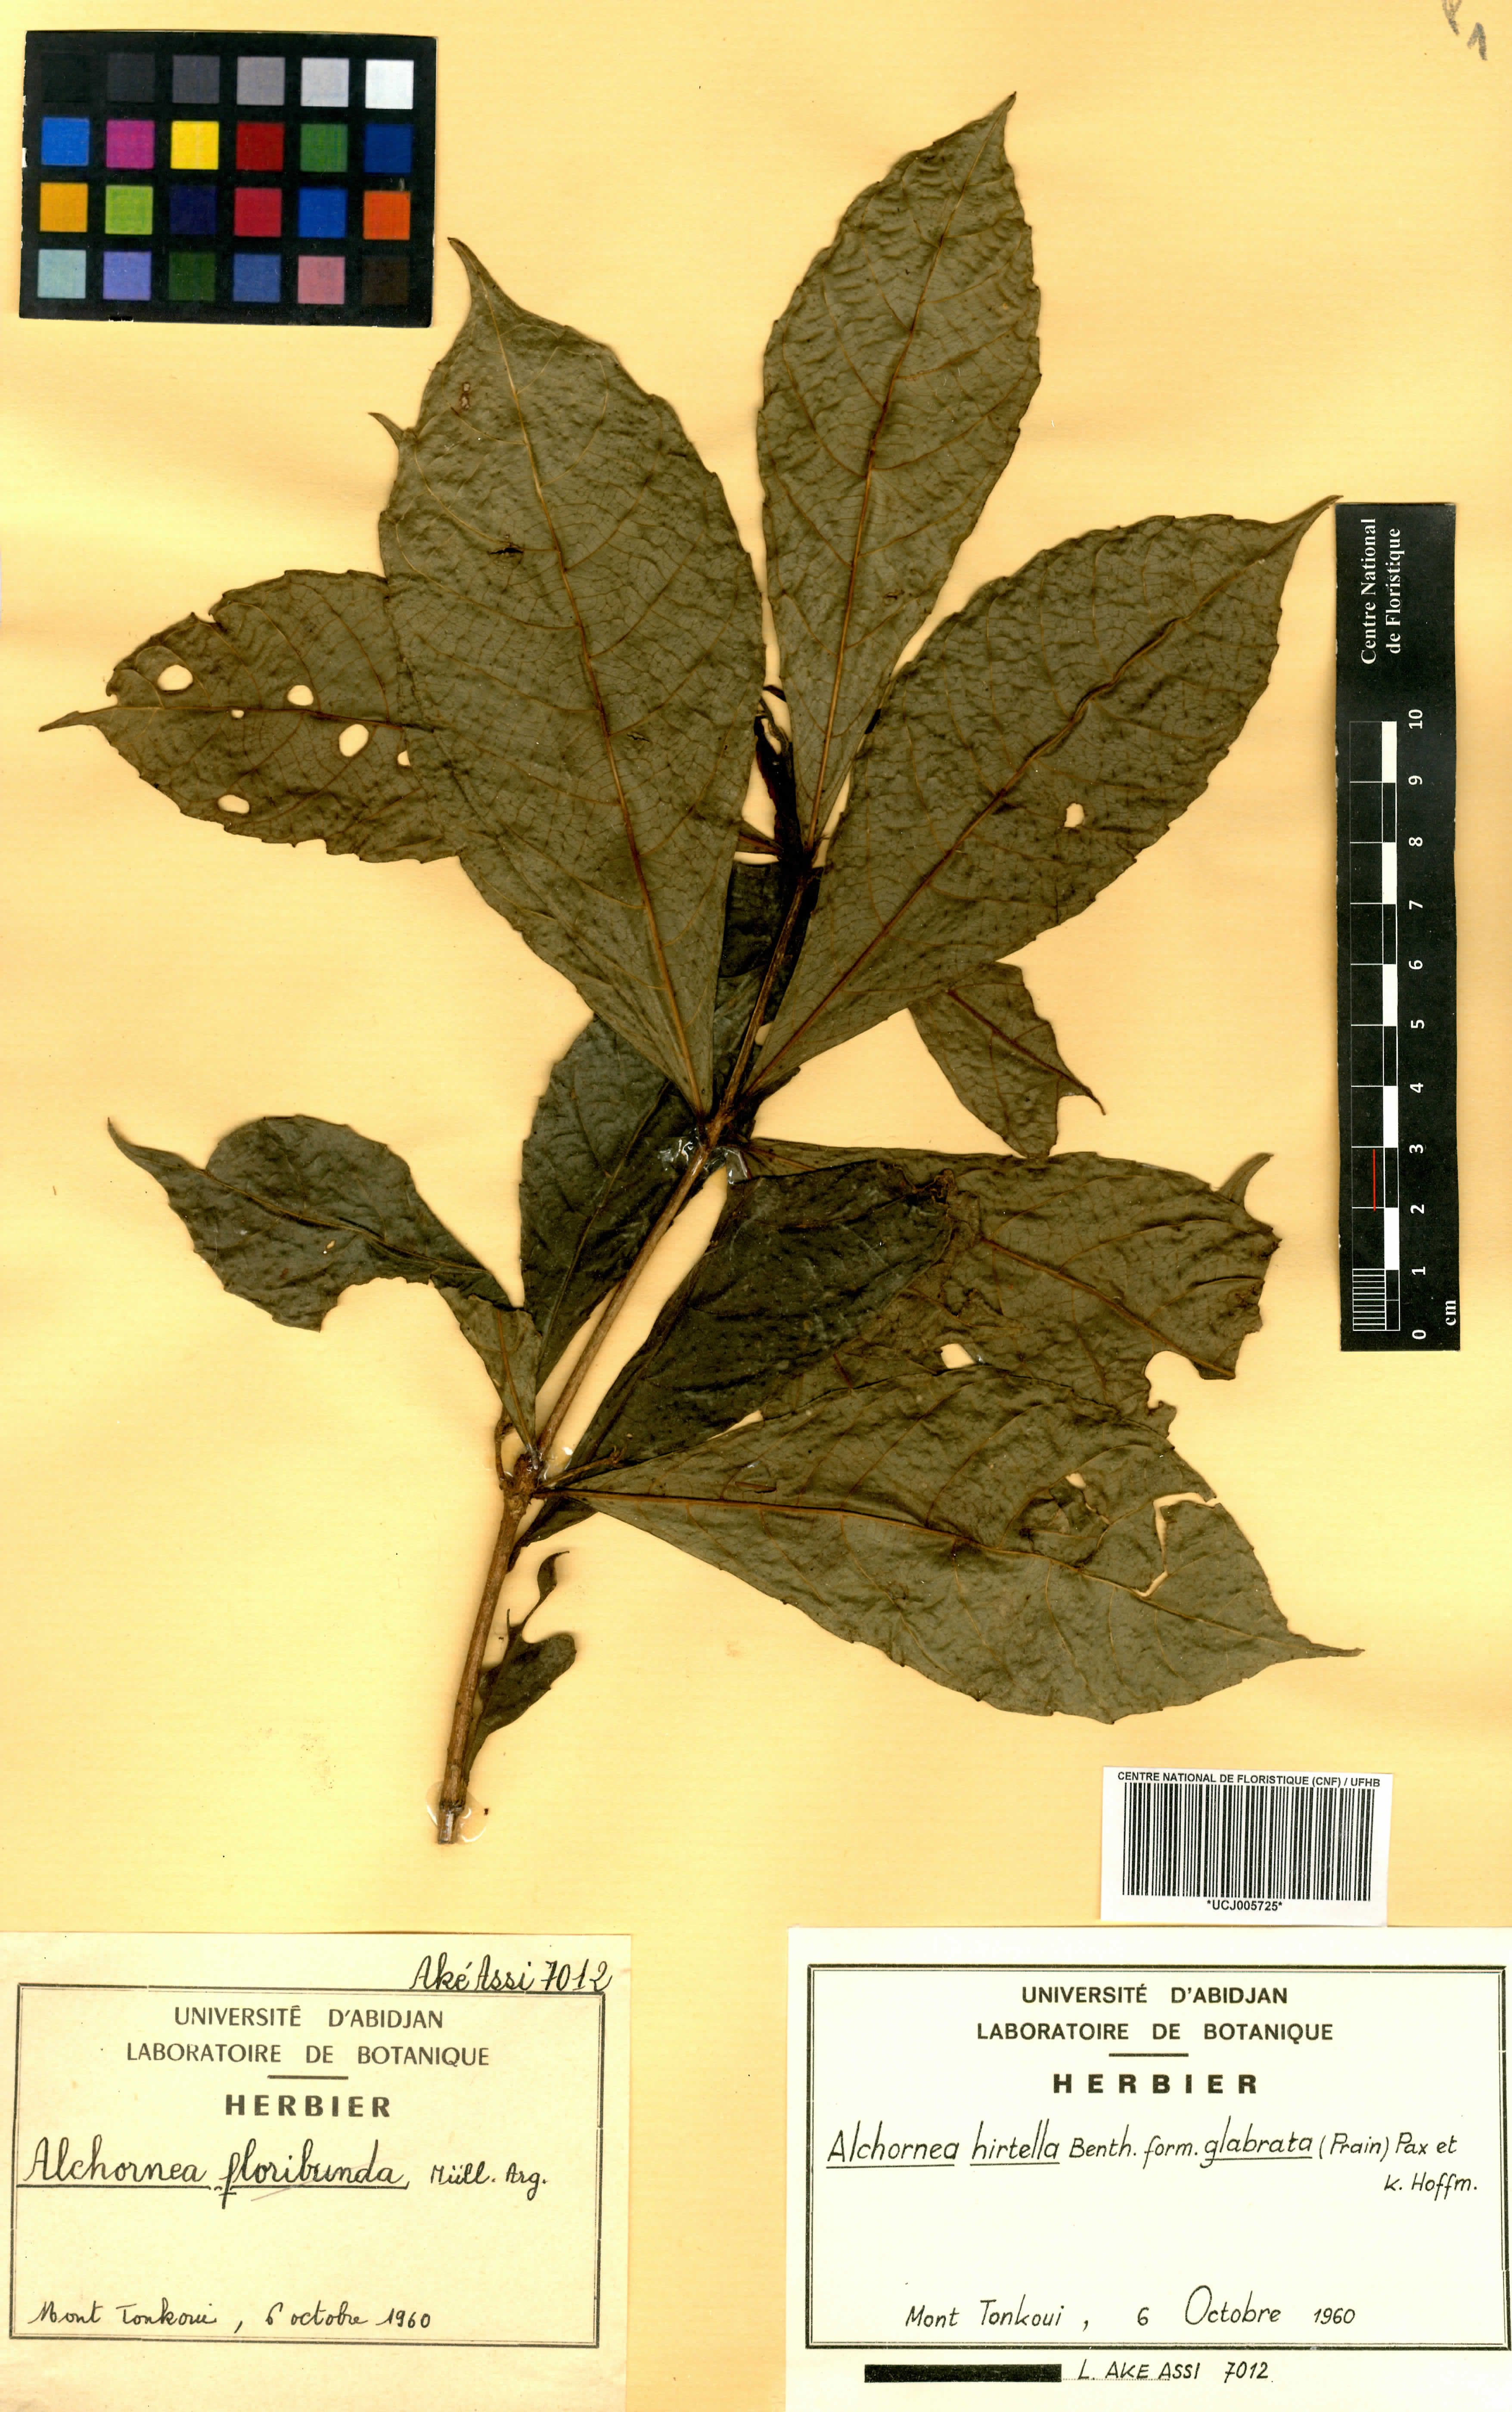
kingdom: Plantae
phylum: Tracheophyta
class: Magnoliopsida
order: Malpighiales
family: Euphorbiaceae
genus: Alchornea
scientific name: Alchornea hirtella
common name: Forest bead-string
